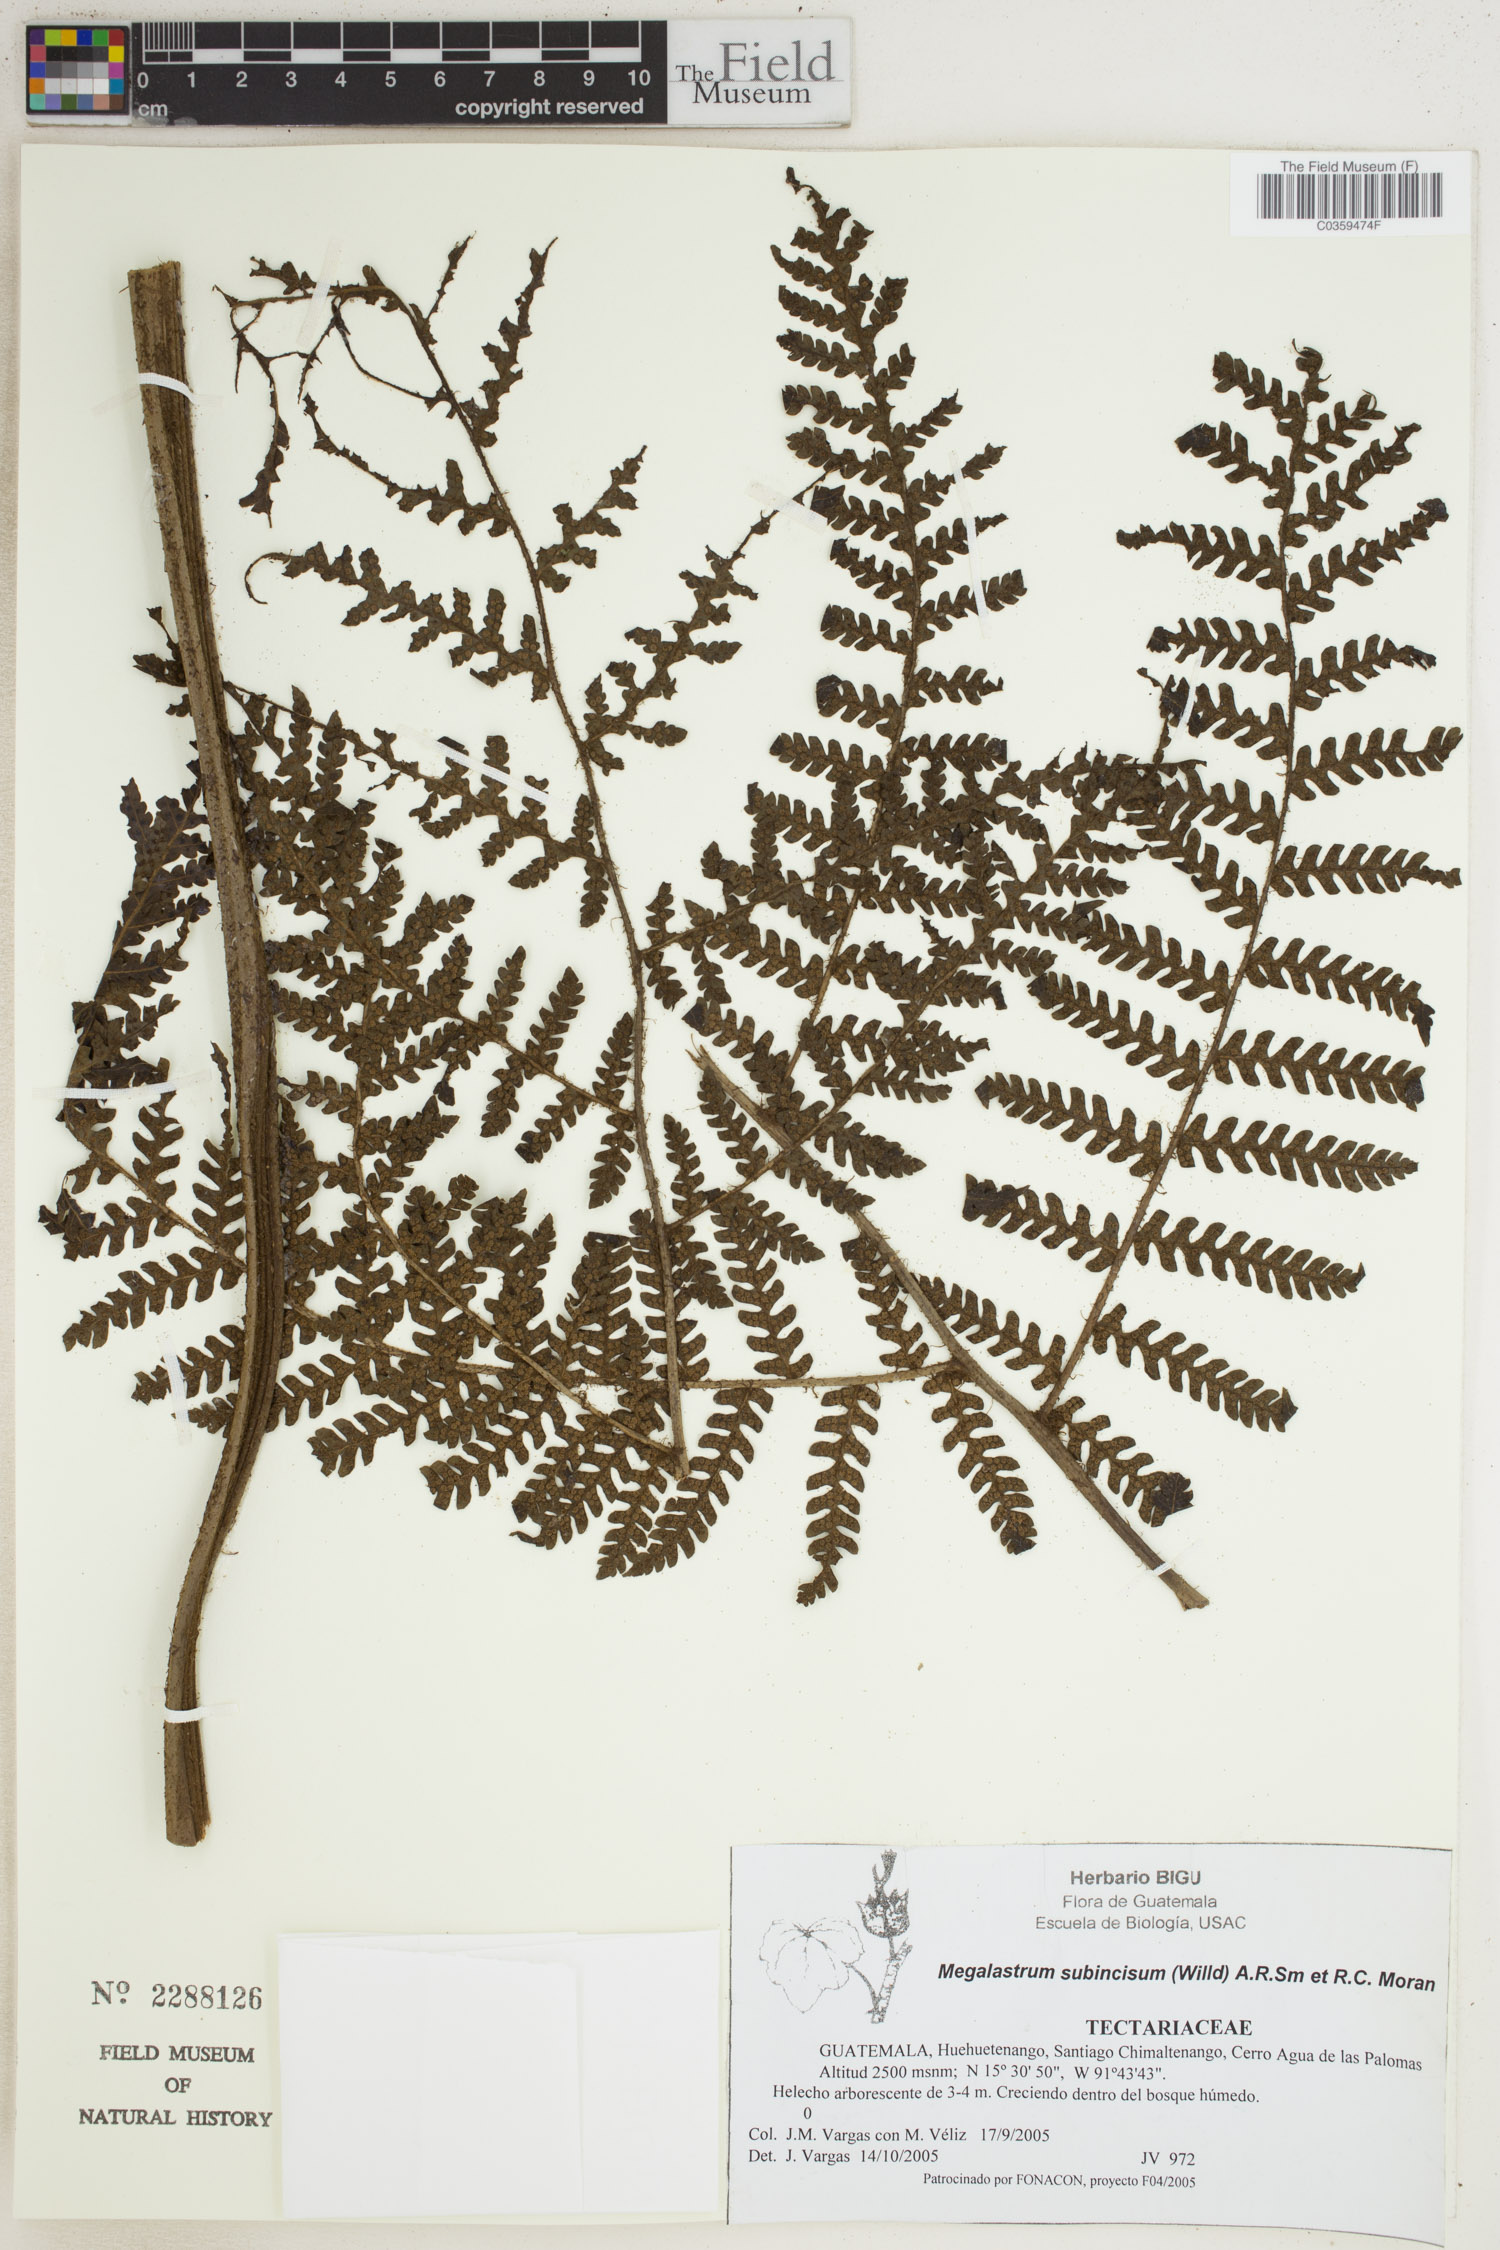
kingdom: Plantae
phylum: Tracheophyta
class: Polypodiopsida
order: Polypodiales
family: Dryopteridaceae
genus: Megalastrum
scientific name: Megalastrum subincisum
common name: Jagleaf junglefern
